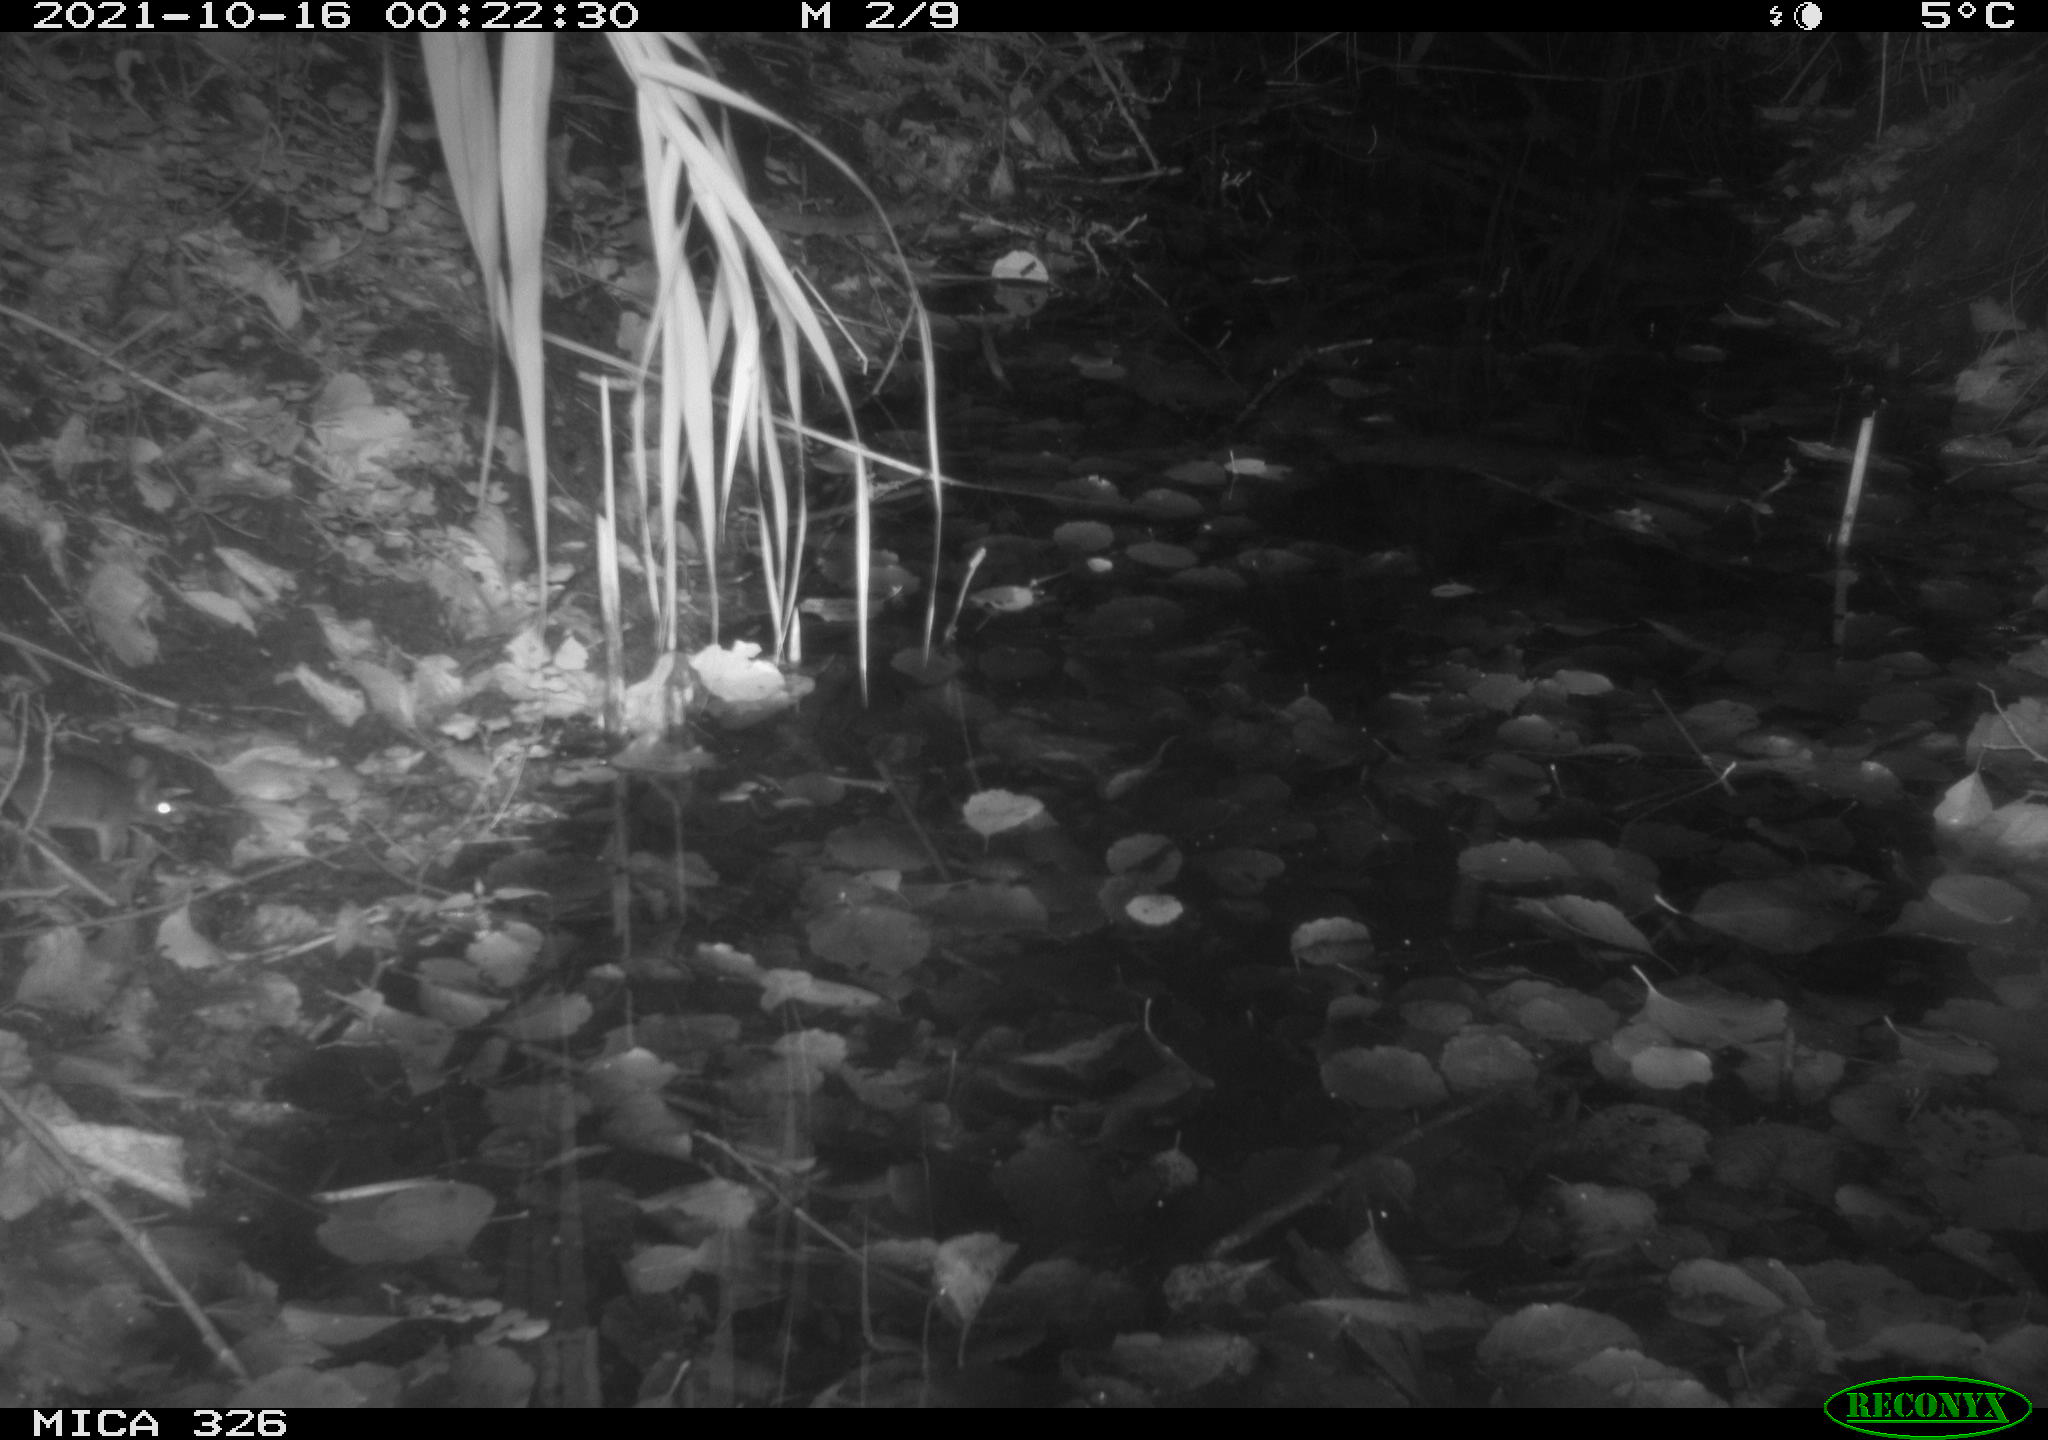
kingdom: Animalia
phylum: Chordata
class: Mammalia
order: Rodentia
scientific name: Rodentia
